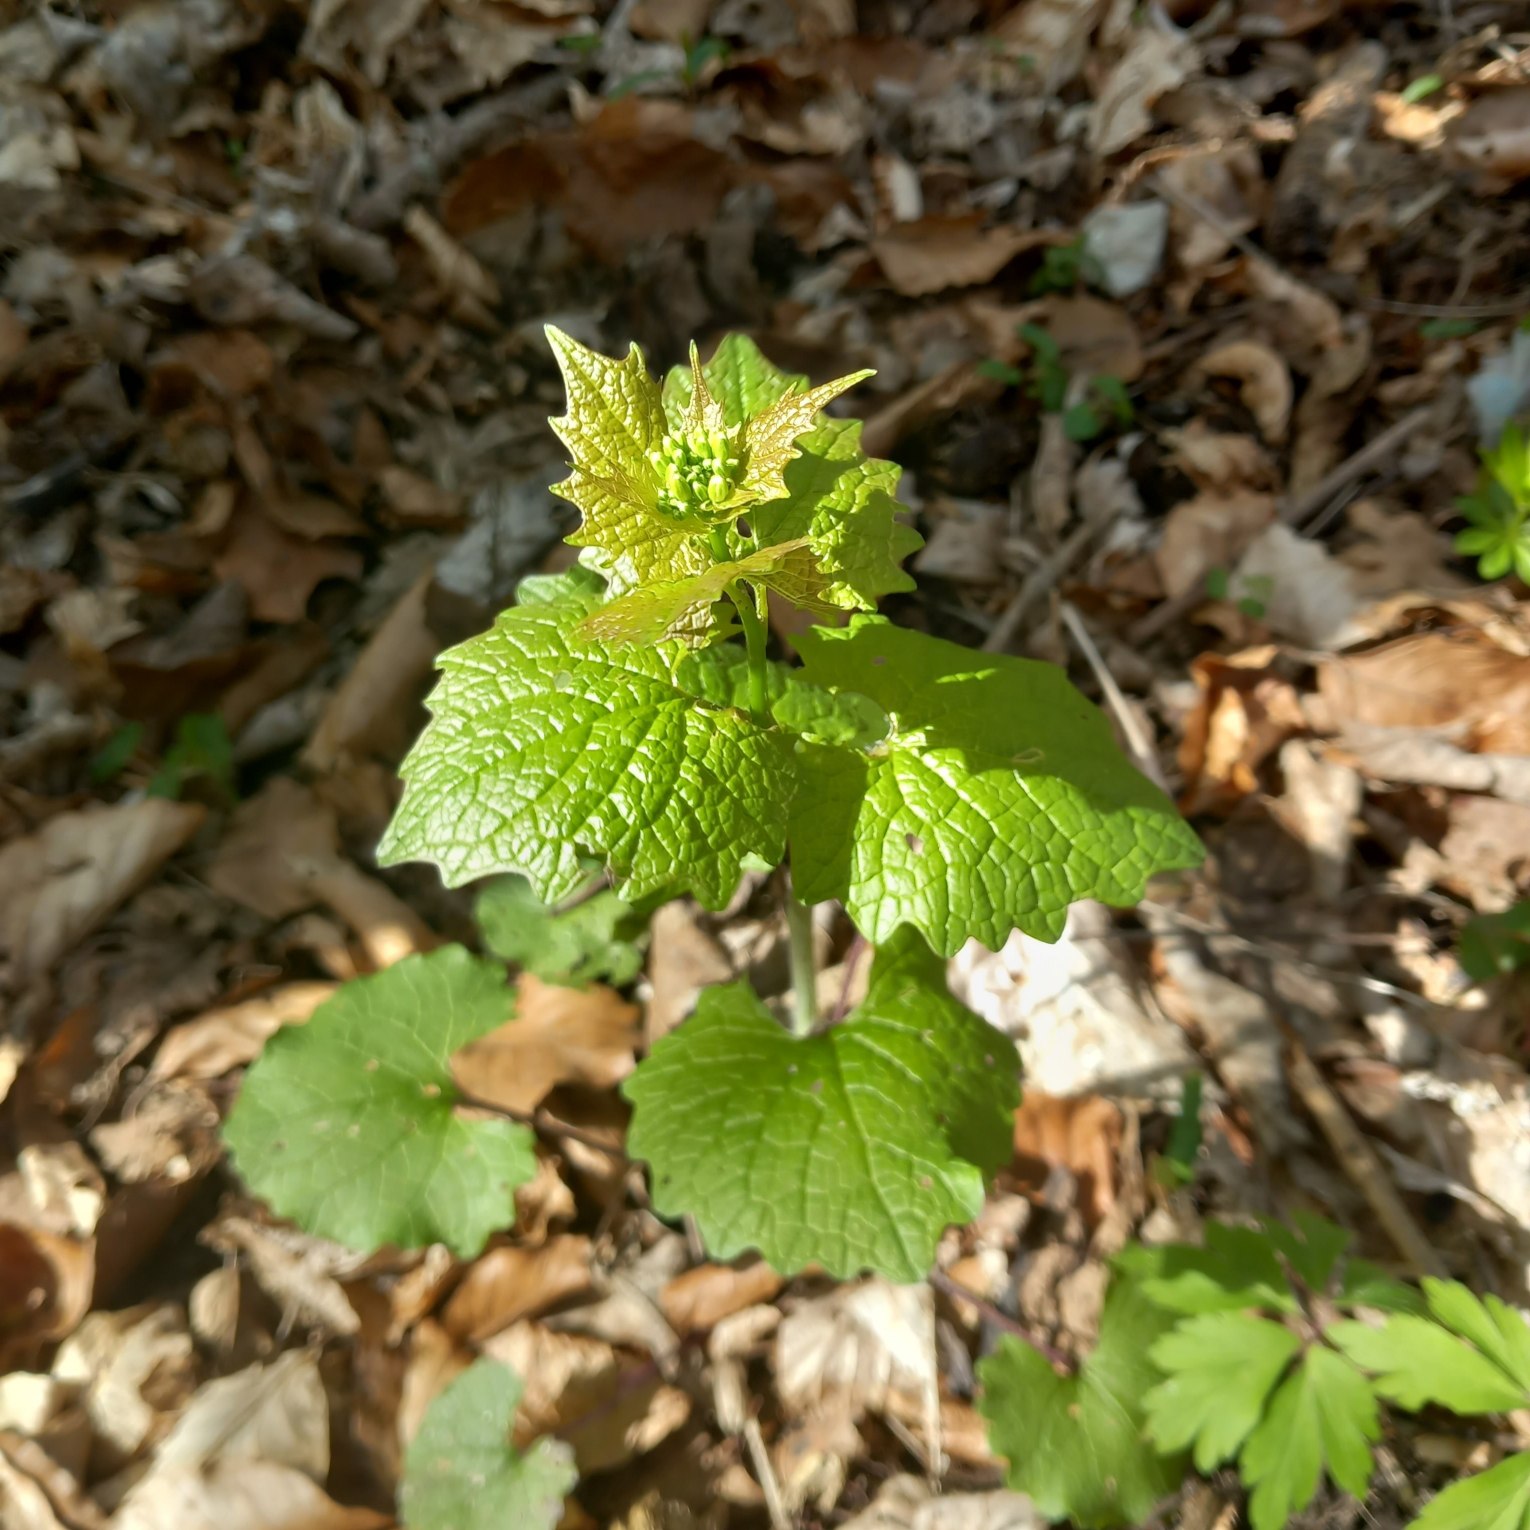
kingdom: Plantae
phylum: Tracheophyta
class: Magnoliopsida
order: Brassicales
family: Brassicaceae
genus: Alliaria
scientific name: Alliaria petiolata
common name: Løgkarse
